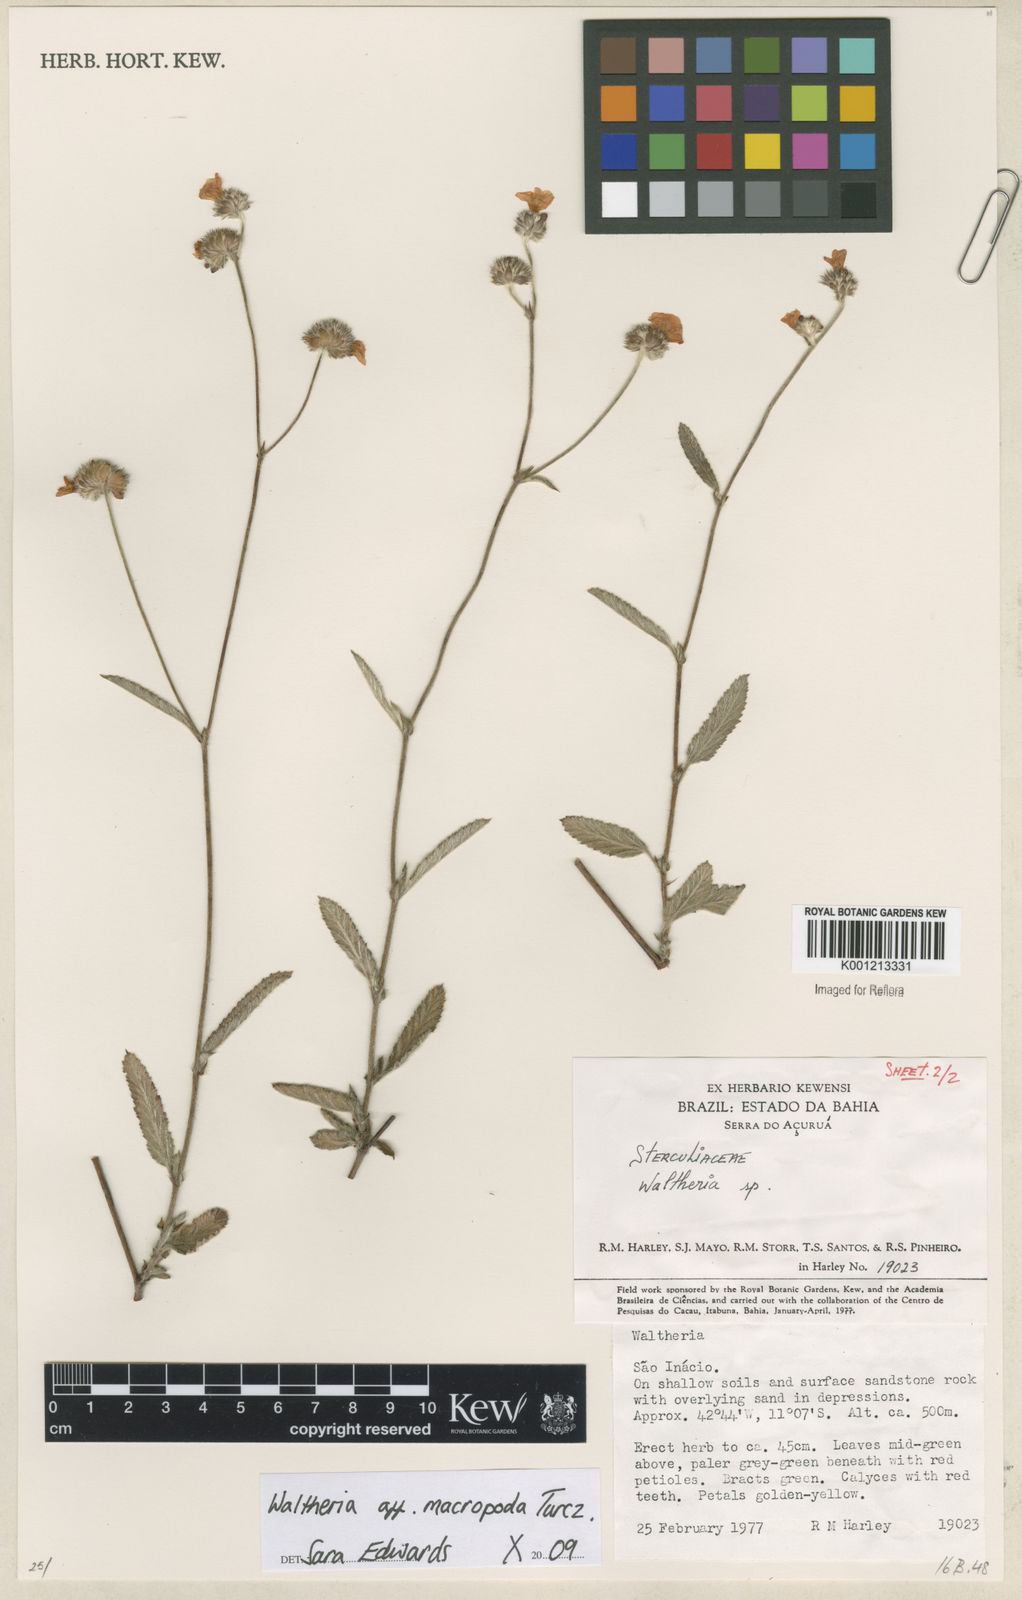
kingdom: Plantae
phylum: Tracheophyta
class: Magnoliopsida
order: Malvales
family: Malvaceae
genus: Waltheria
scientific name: Waltheria bracteosa
